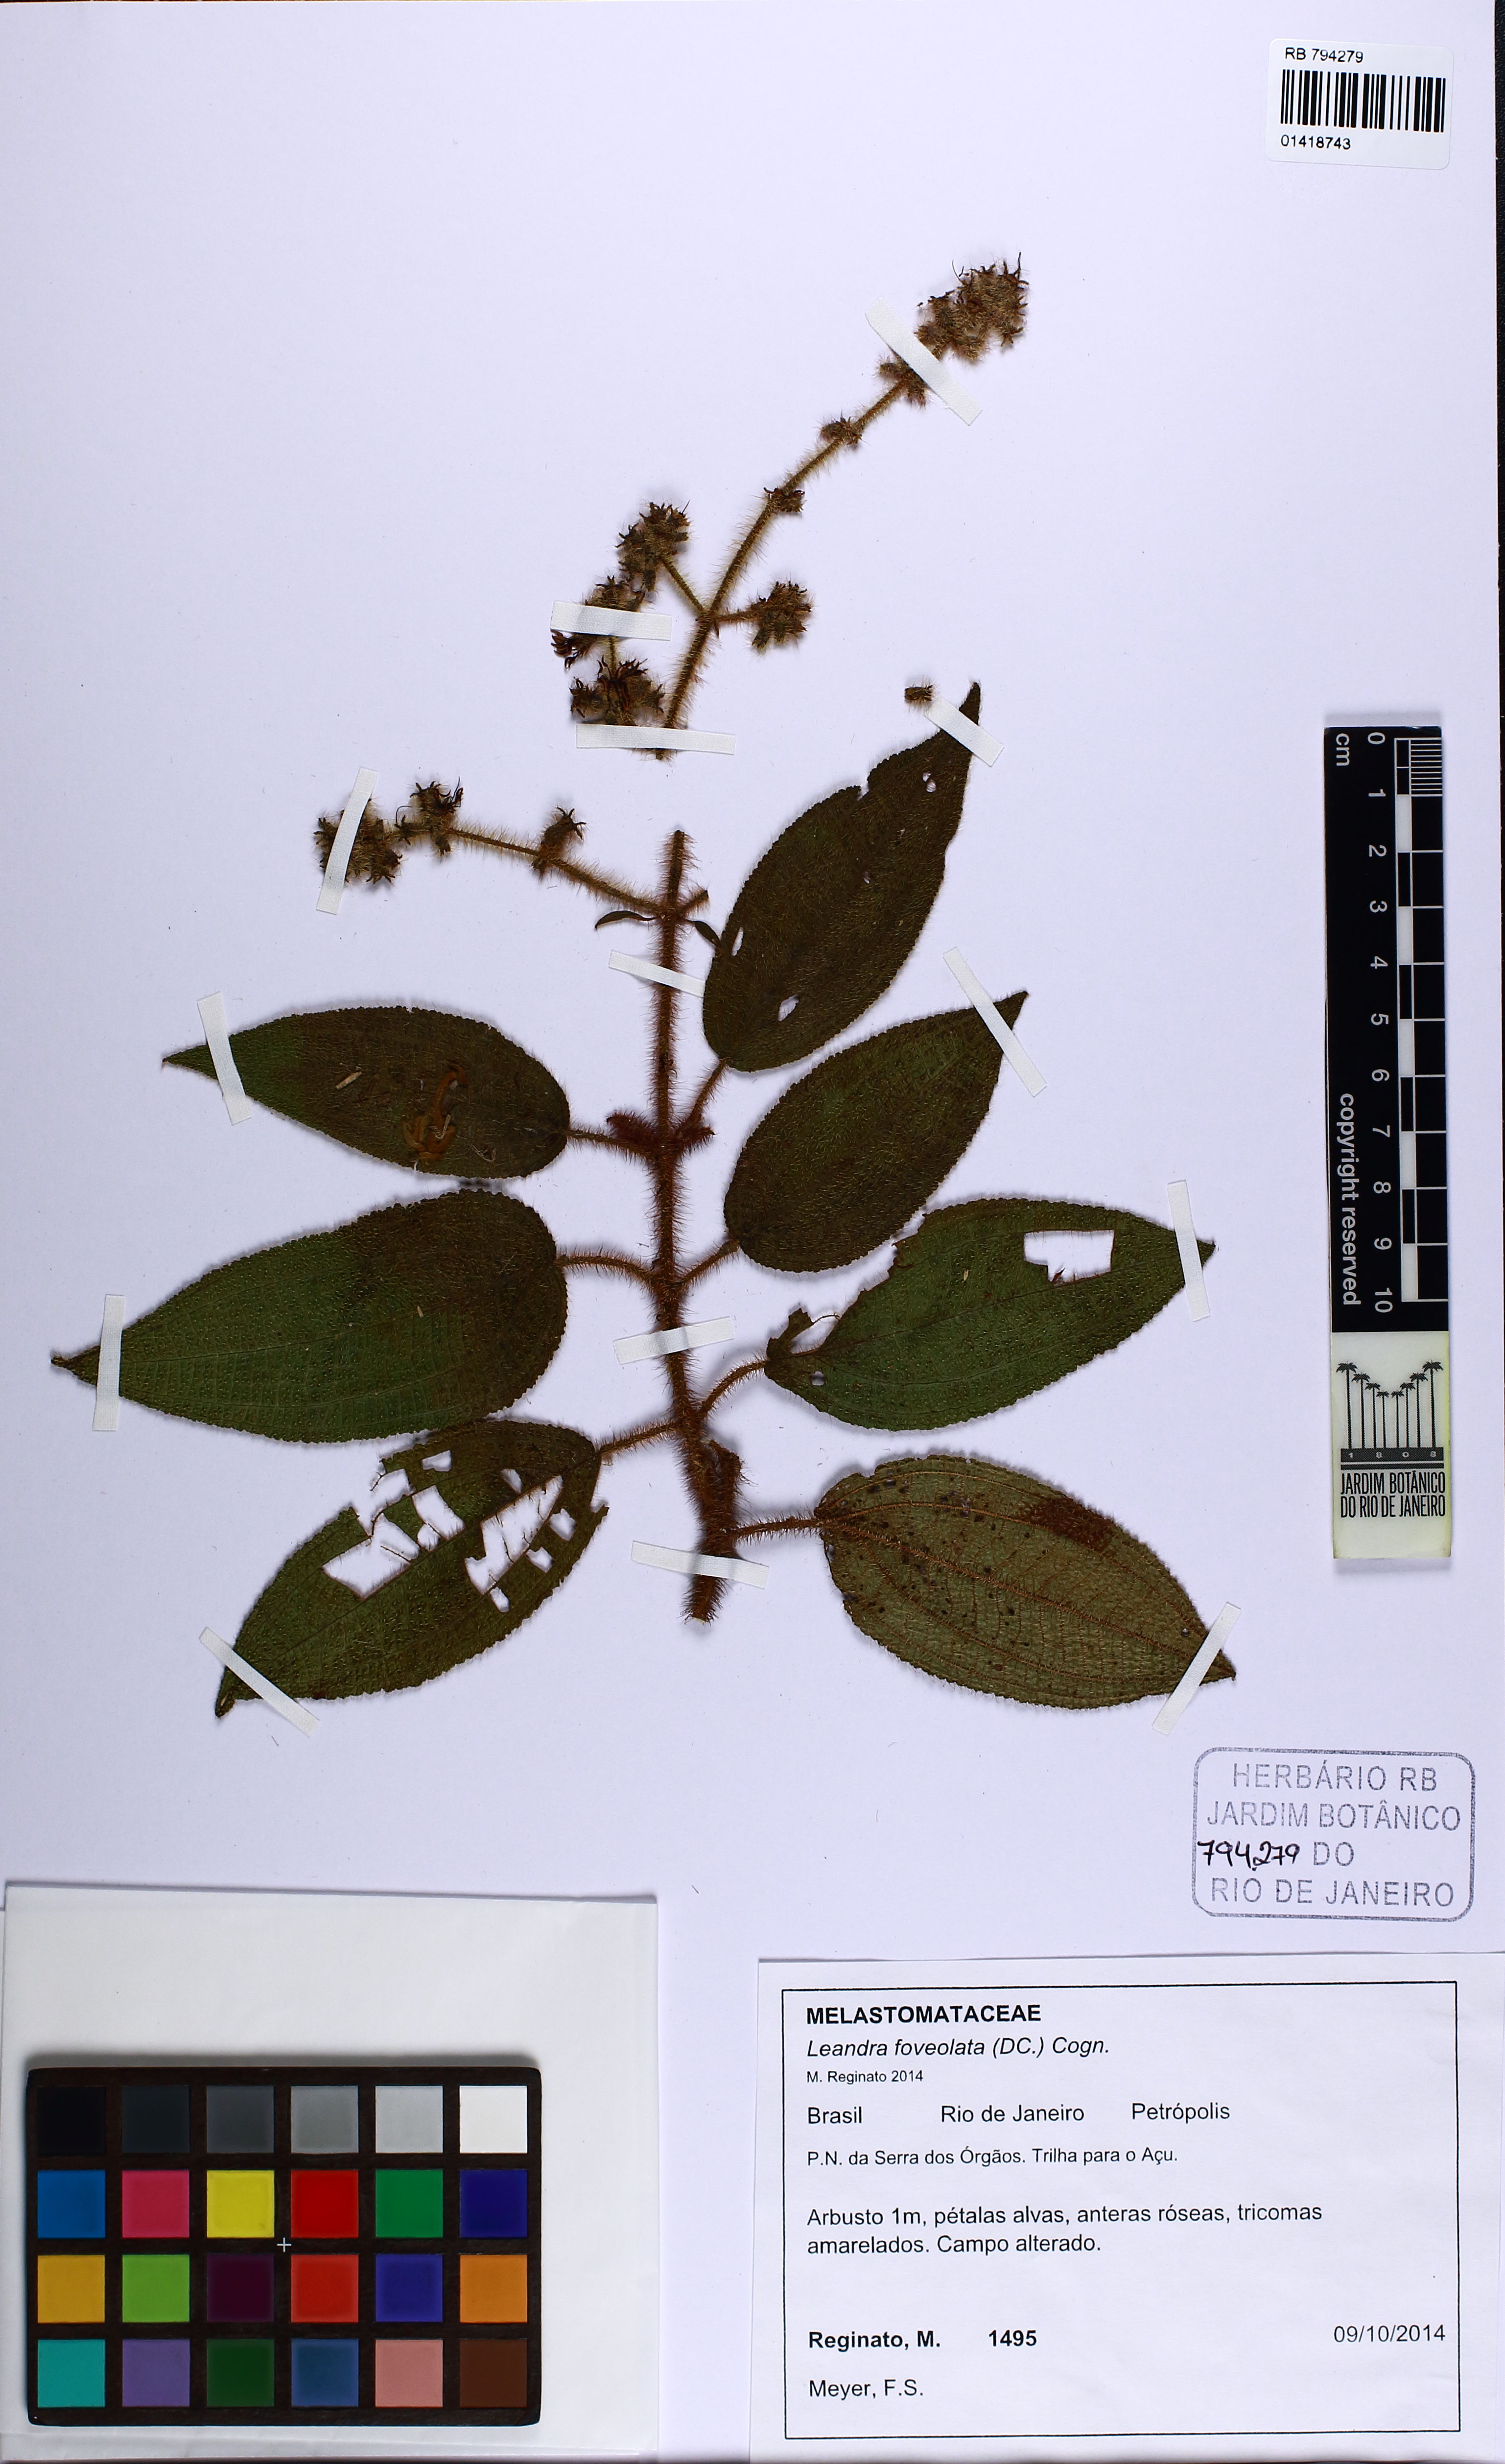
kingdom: Plantae
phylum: Tracheophyta
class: Magnoliopsida
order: Myrtales
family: Melastomataceae
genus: Miconia
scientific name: Miconia leafoveolata
